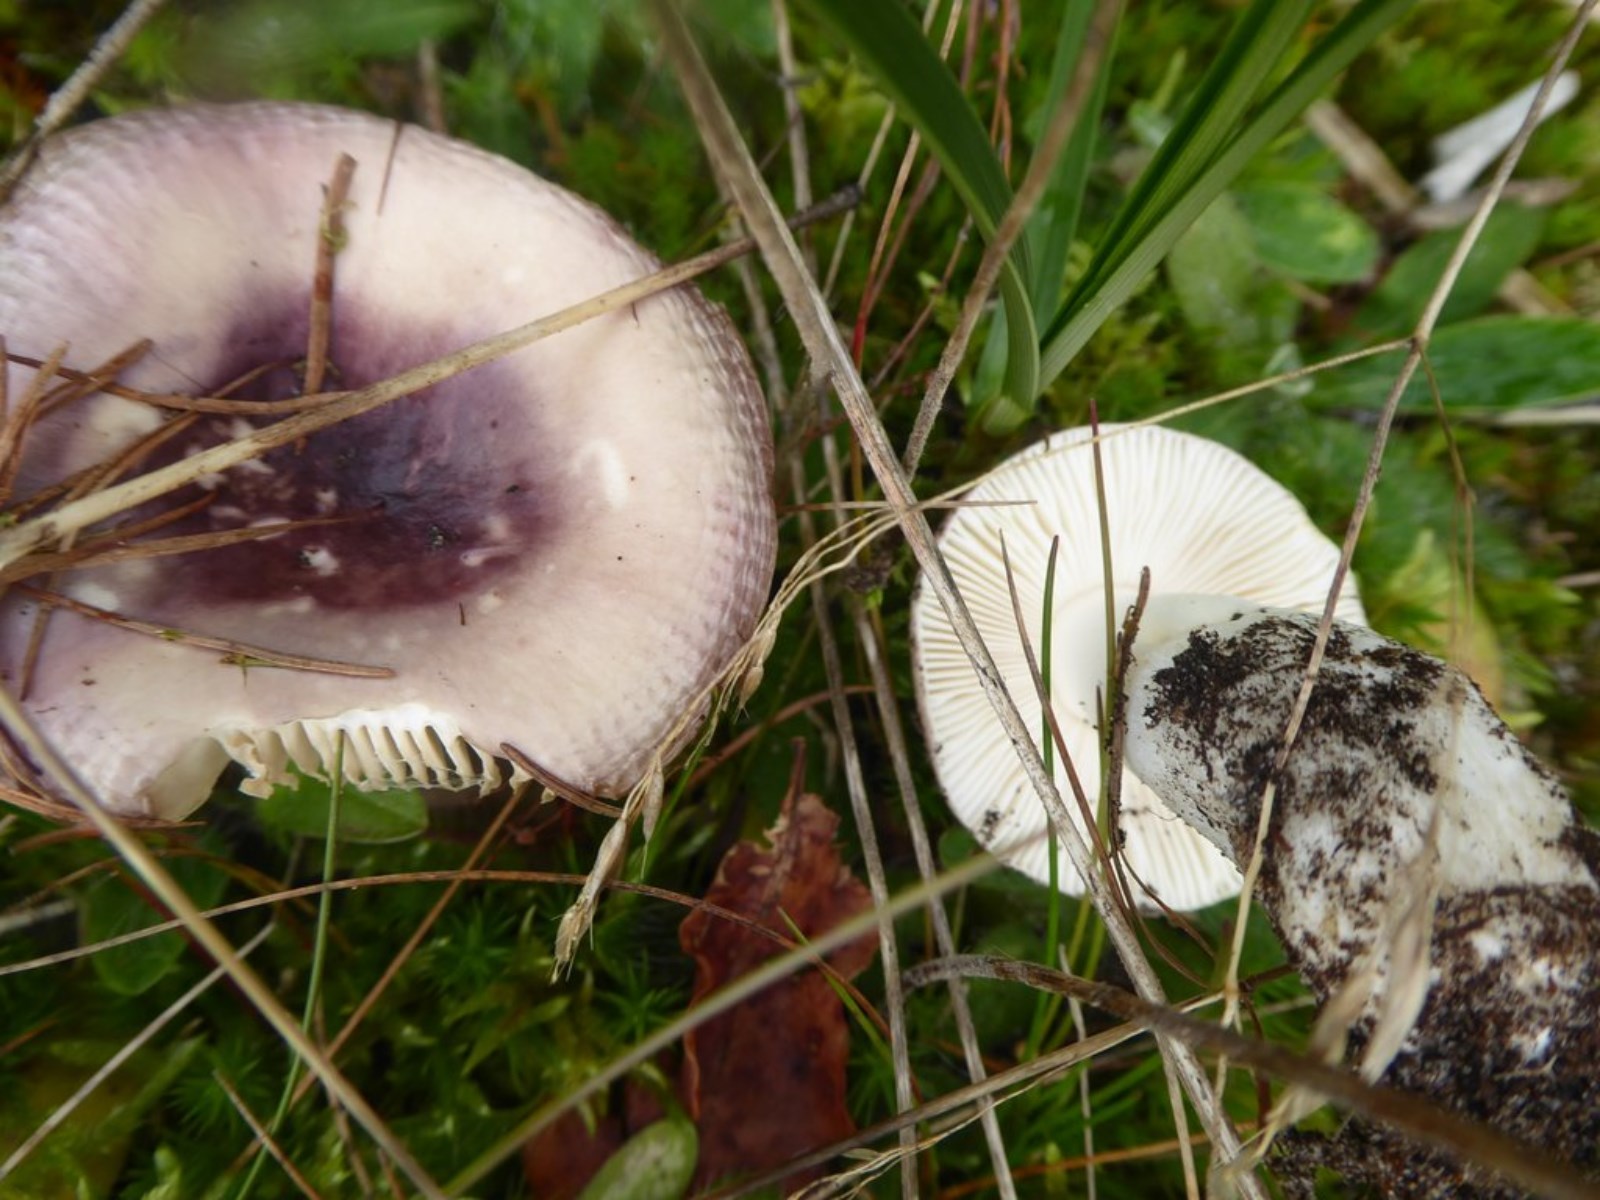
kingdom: Fungi
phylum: Basidiomycota
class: Agaricomycetes
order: Russulales
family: Russulaceae
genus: Russula
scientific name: Russula
